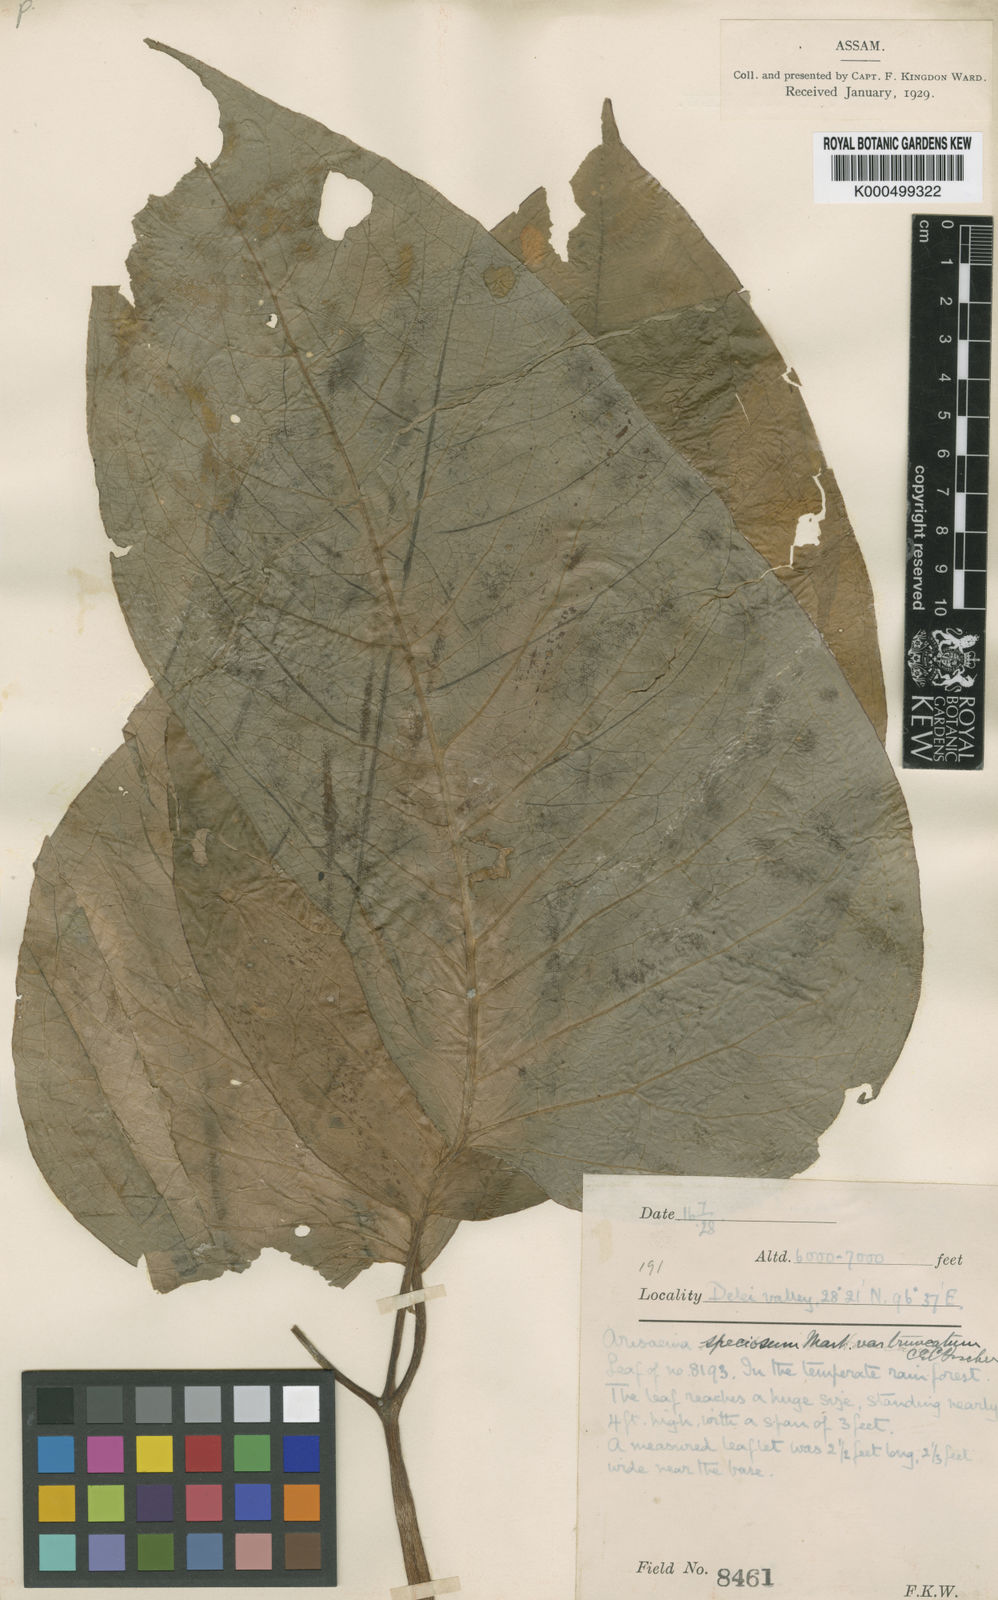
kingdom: Plantae
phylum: Tracheophyta
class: Liliopsida
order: Alismatales
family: Araceae
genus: Arisaema
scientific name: Arisaema speciosum
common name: Showy cobra-lily
